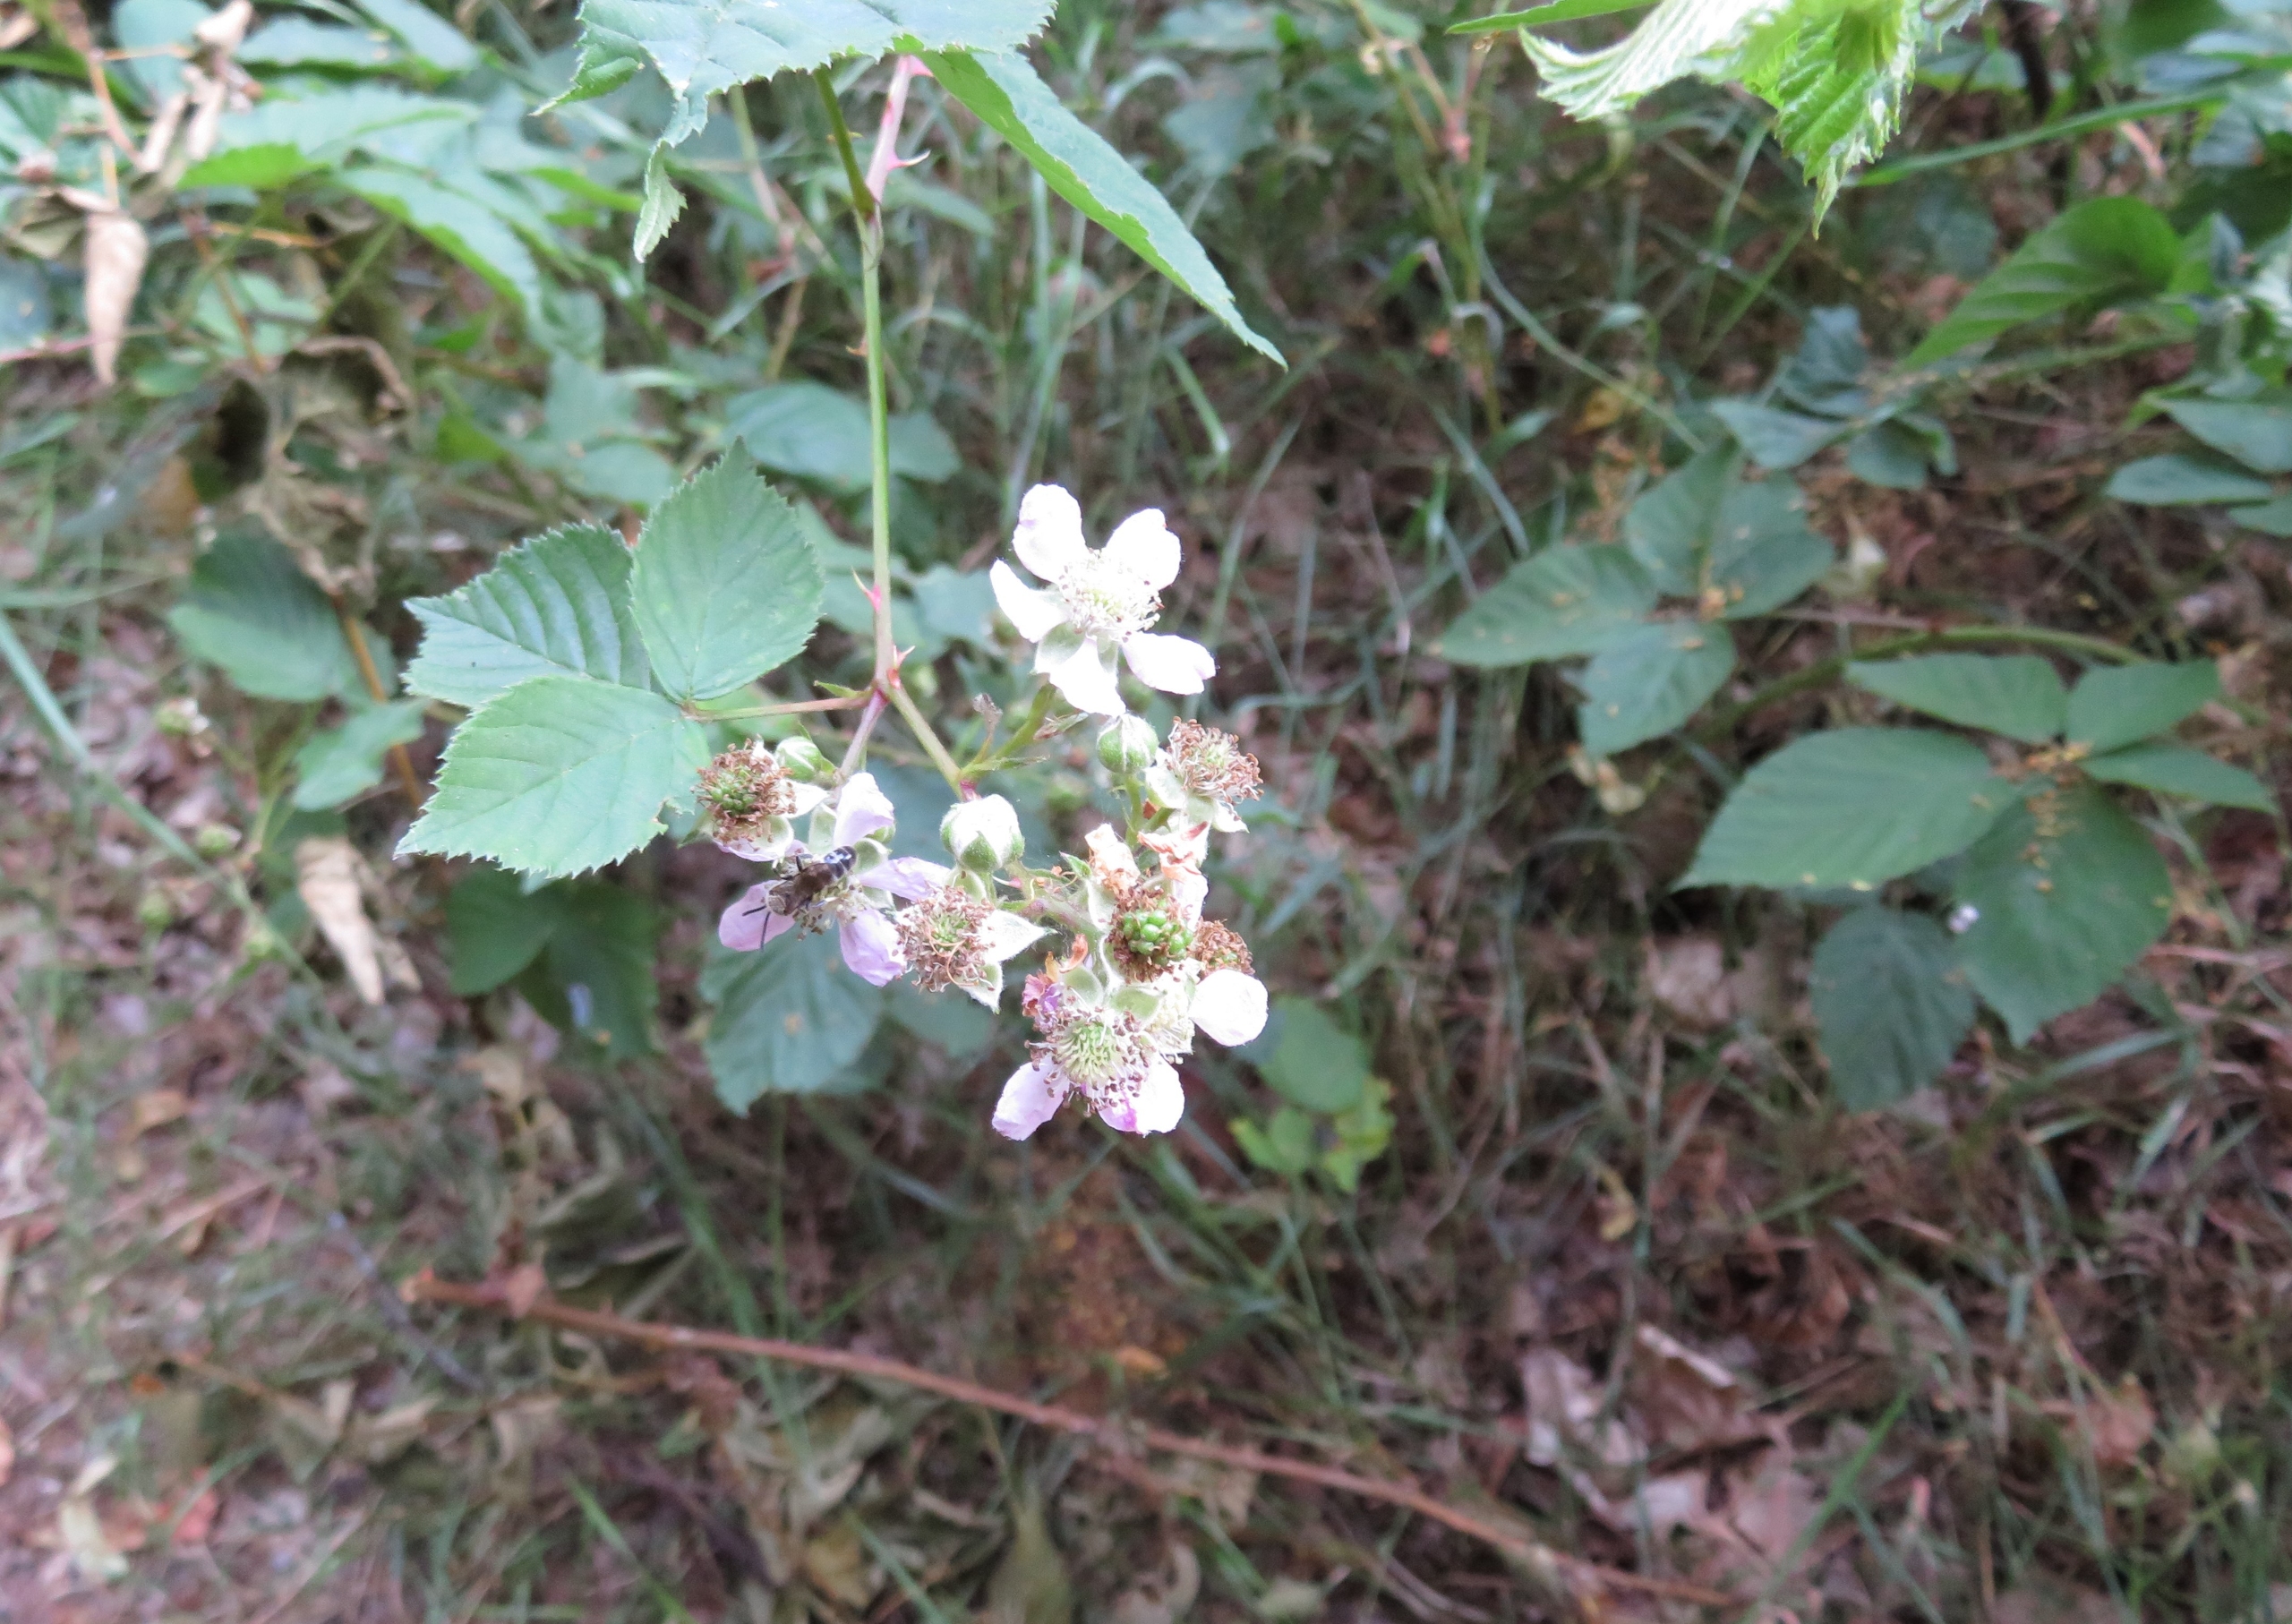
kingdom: Plantae
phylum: Tracheophyta
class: Magnoliopsida
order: Rosales
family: Rosaceae
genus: Rubus
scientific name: Rubus insularis
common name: Lodden brombær
